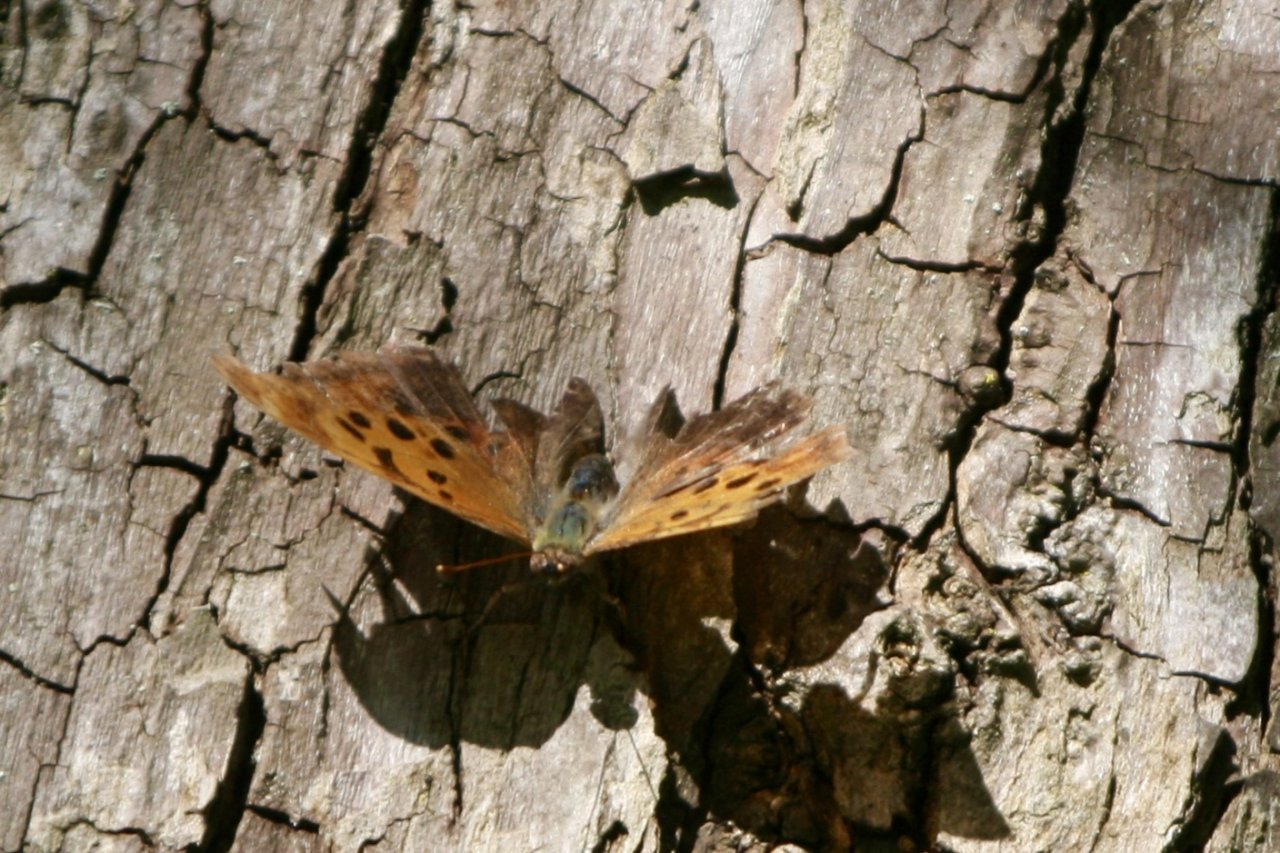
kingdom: Animalia
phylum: Arthropoda
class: Insecta
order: Lepidoptera
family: Nymphalidae
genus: Polygonia
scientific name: Polygonia interrogationis
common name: Question Mark
